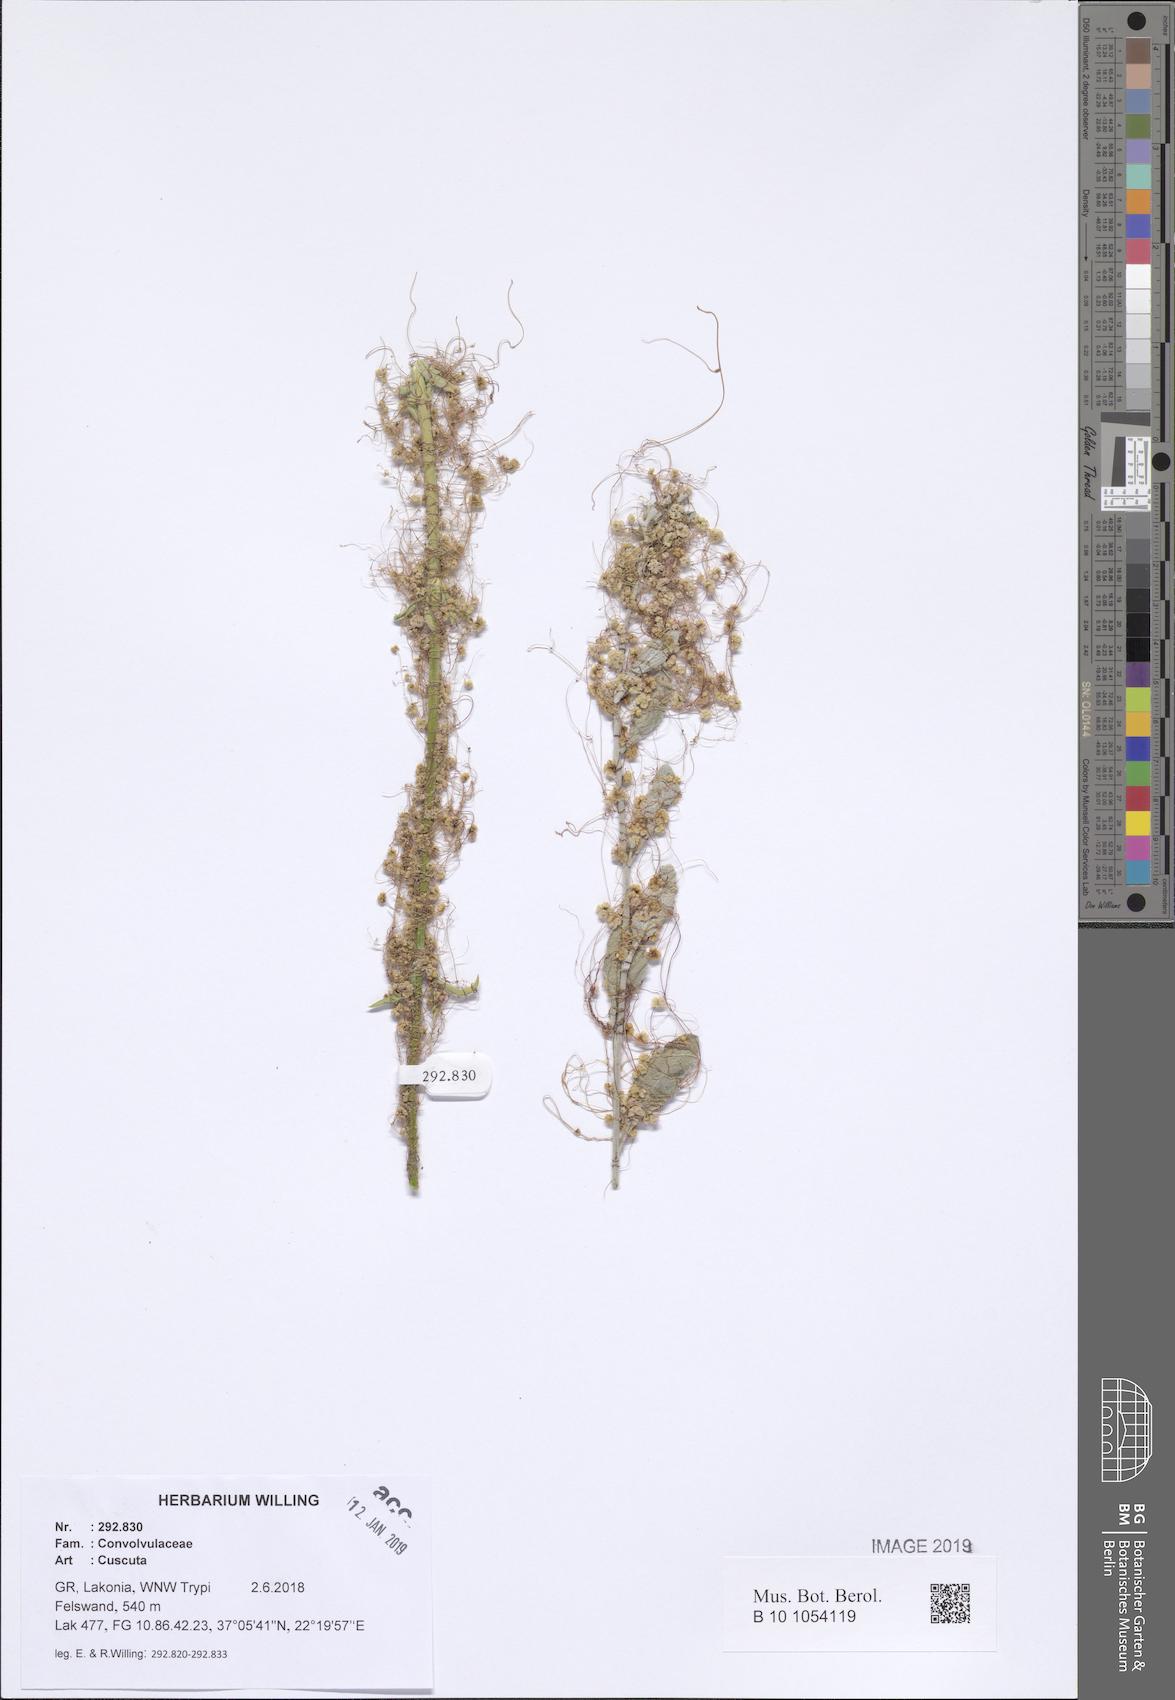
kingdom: Plantae
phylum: Tracheophyta
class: Magnoliopsida
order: Solanales
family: Convolvulaceae
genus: Cuscuta
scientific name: Cuscuta
